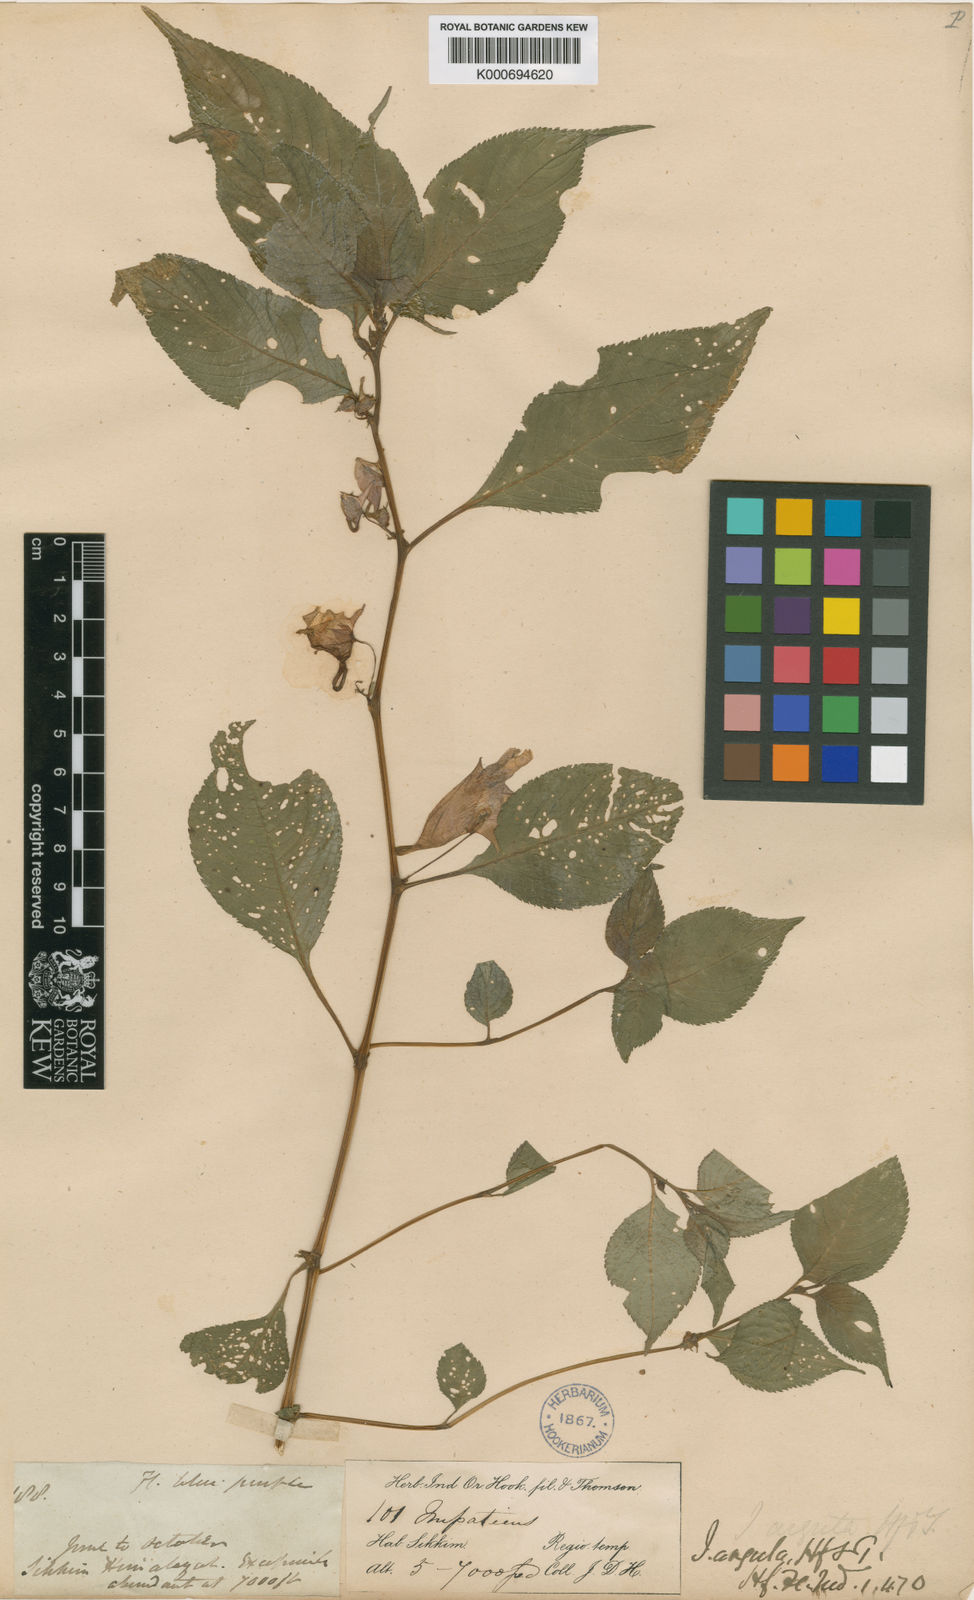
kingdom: Plantae
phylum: Tracheophyta
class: Magnoliopsida
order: Ericales
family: Balsaminaceae
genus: Impatiens
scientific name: Impatiens arguta
